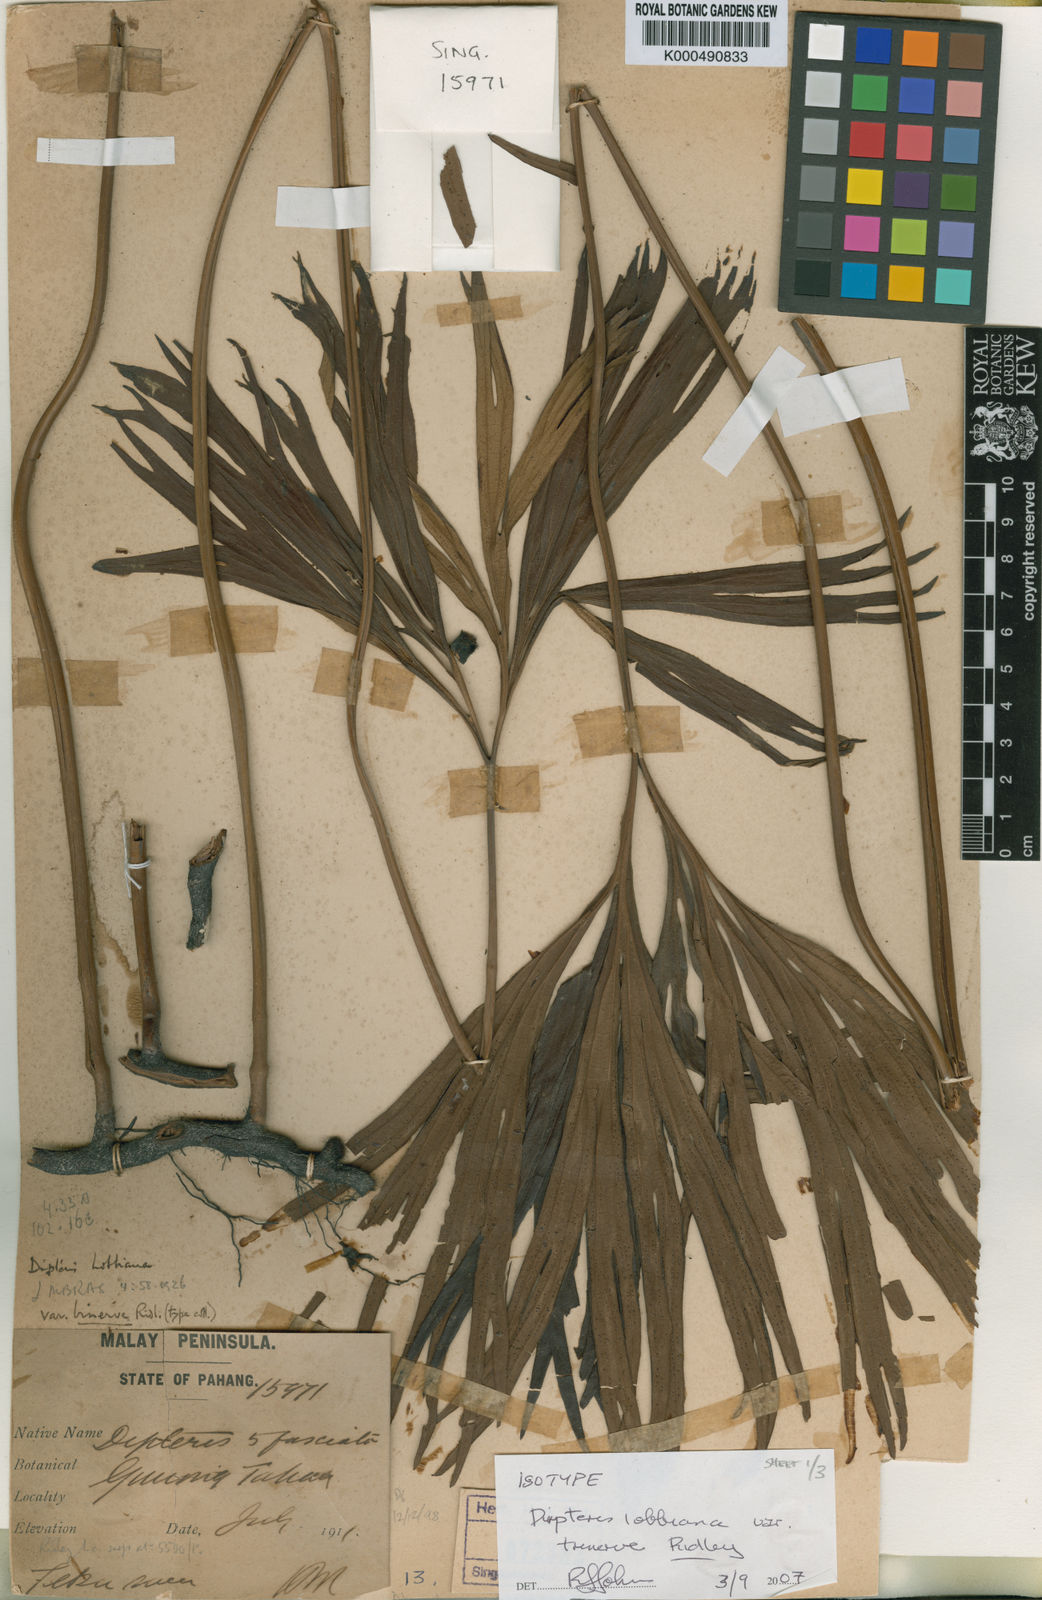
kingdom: Plantae
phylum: Tracheophyta
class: Polypodiopsida
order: Gleicheniales
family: Dipteridaceae
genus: Dipteris
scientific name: Dipteris lobbiana
